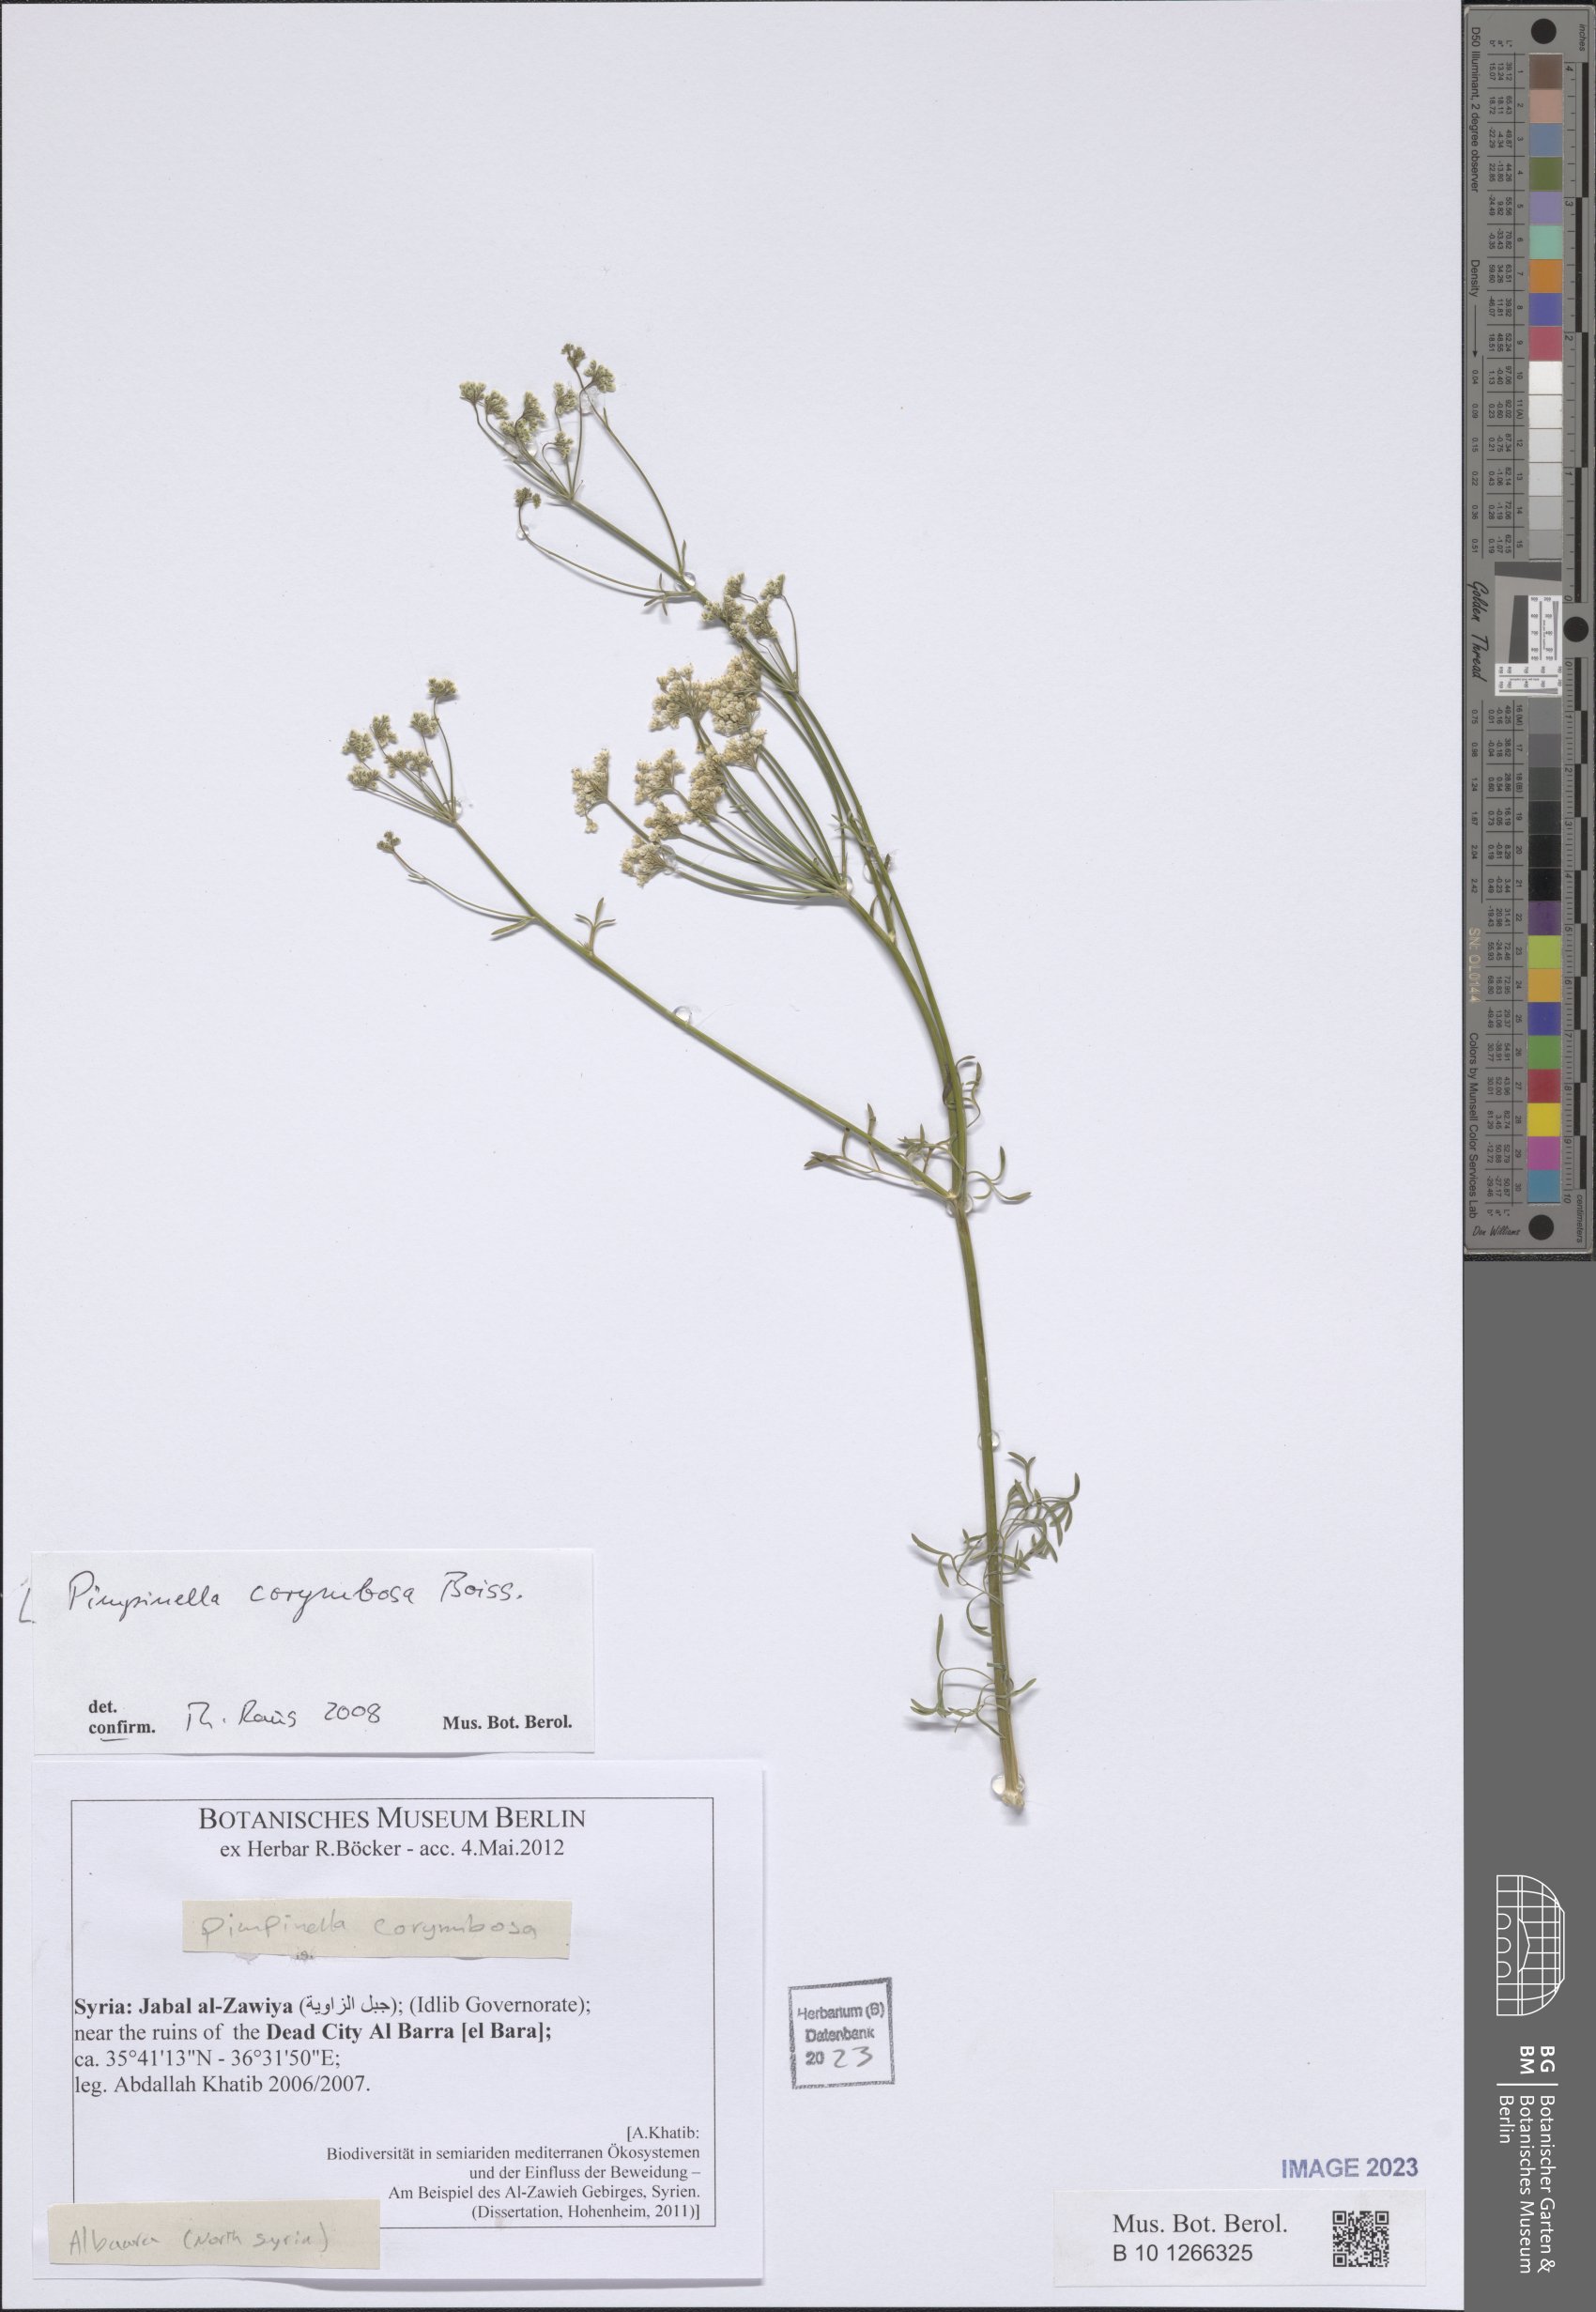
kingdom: Plantae
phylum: Tracheophyta
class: Magnoliopsida
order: Apiales
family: Apiaceae
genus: Pimpinella
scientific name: Pimpinella corymbosa
